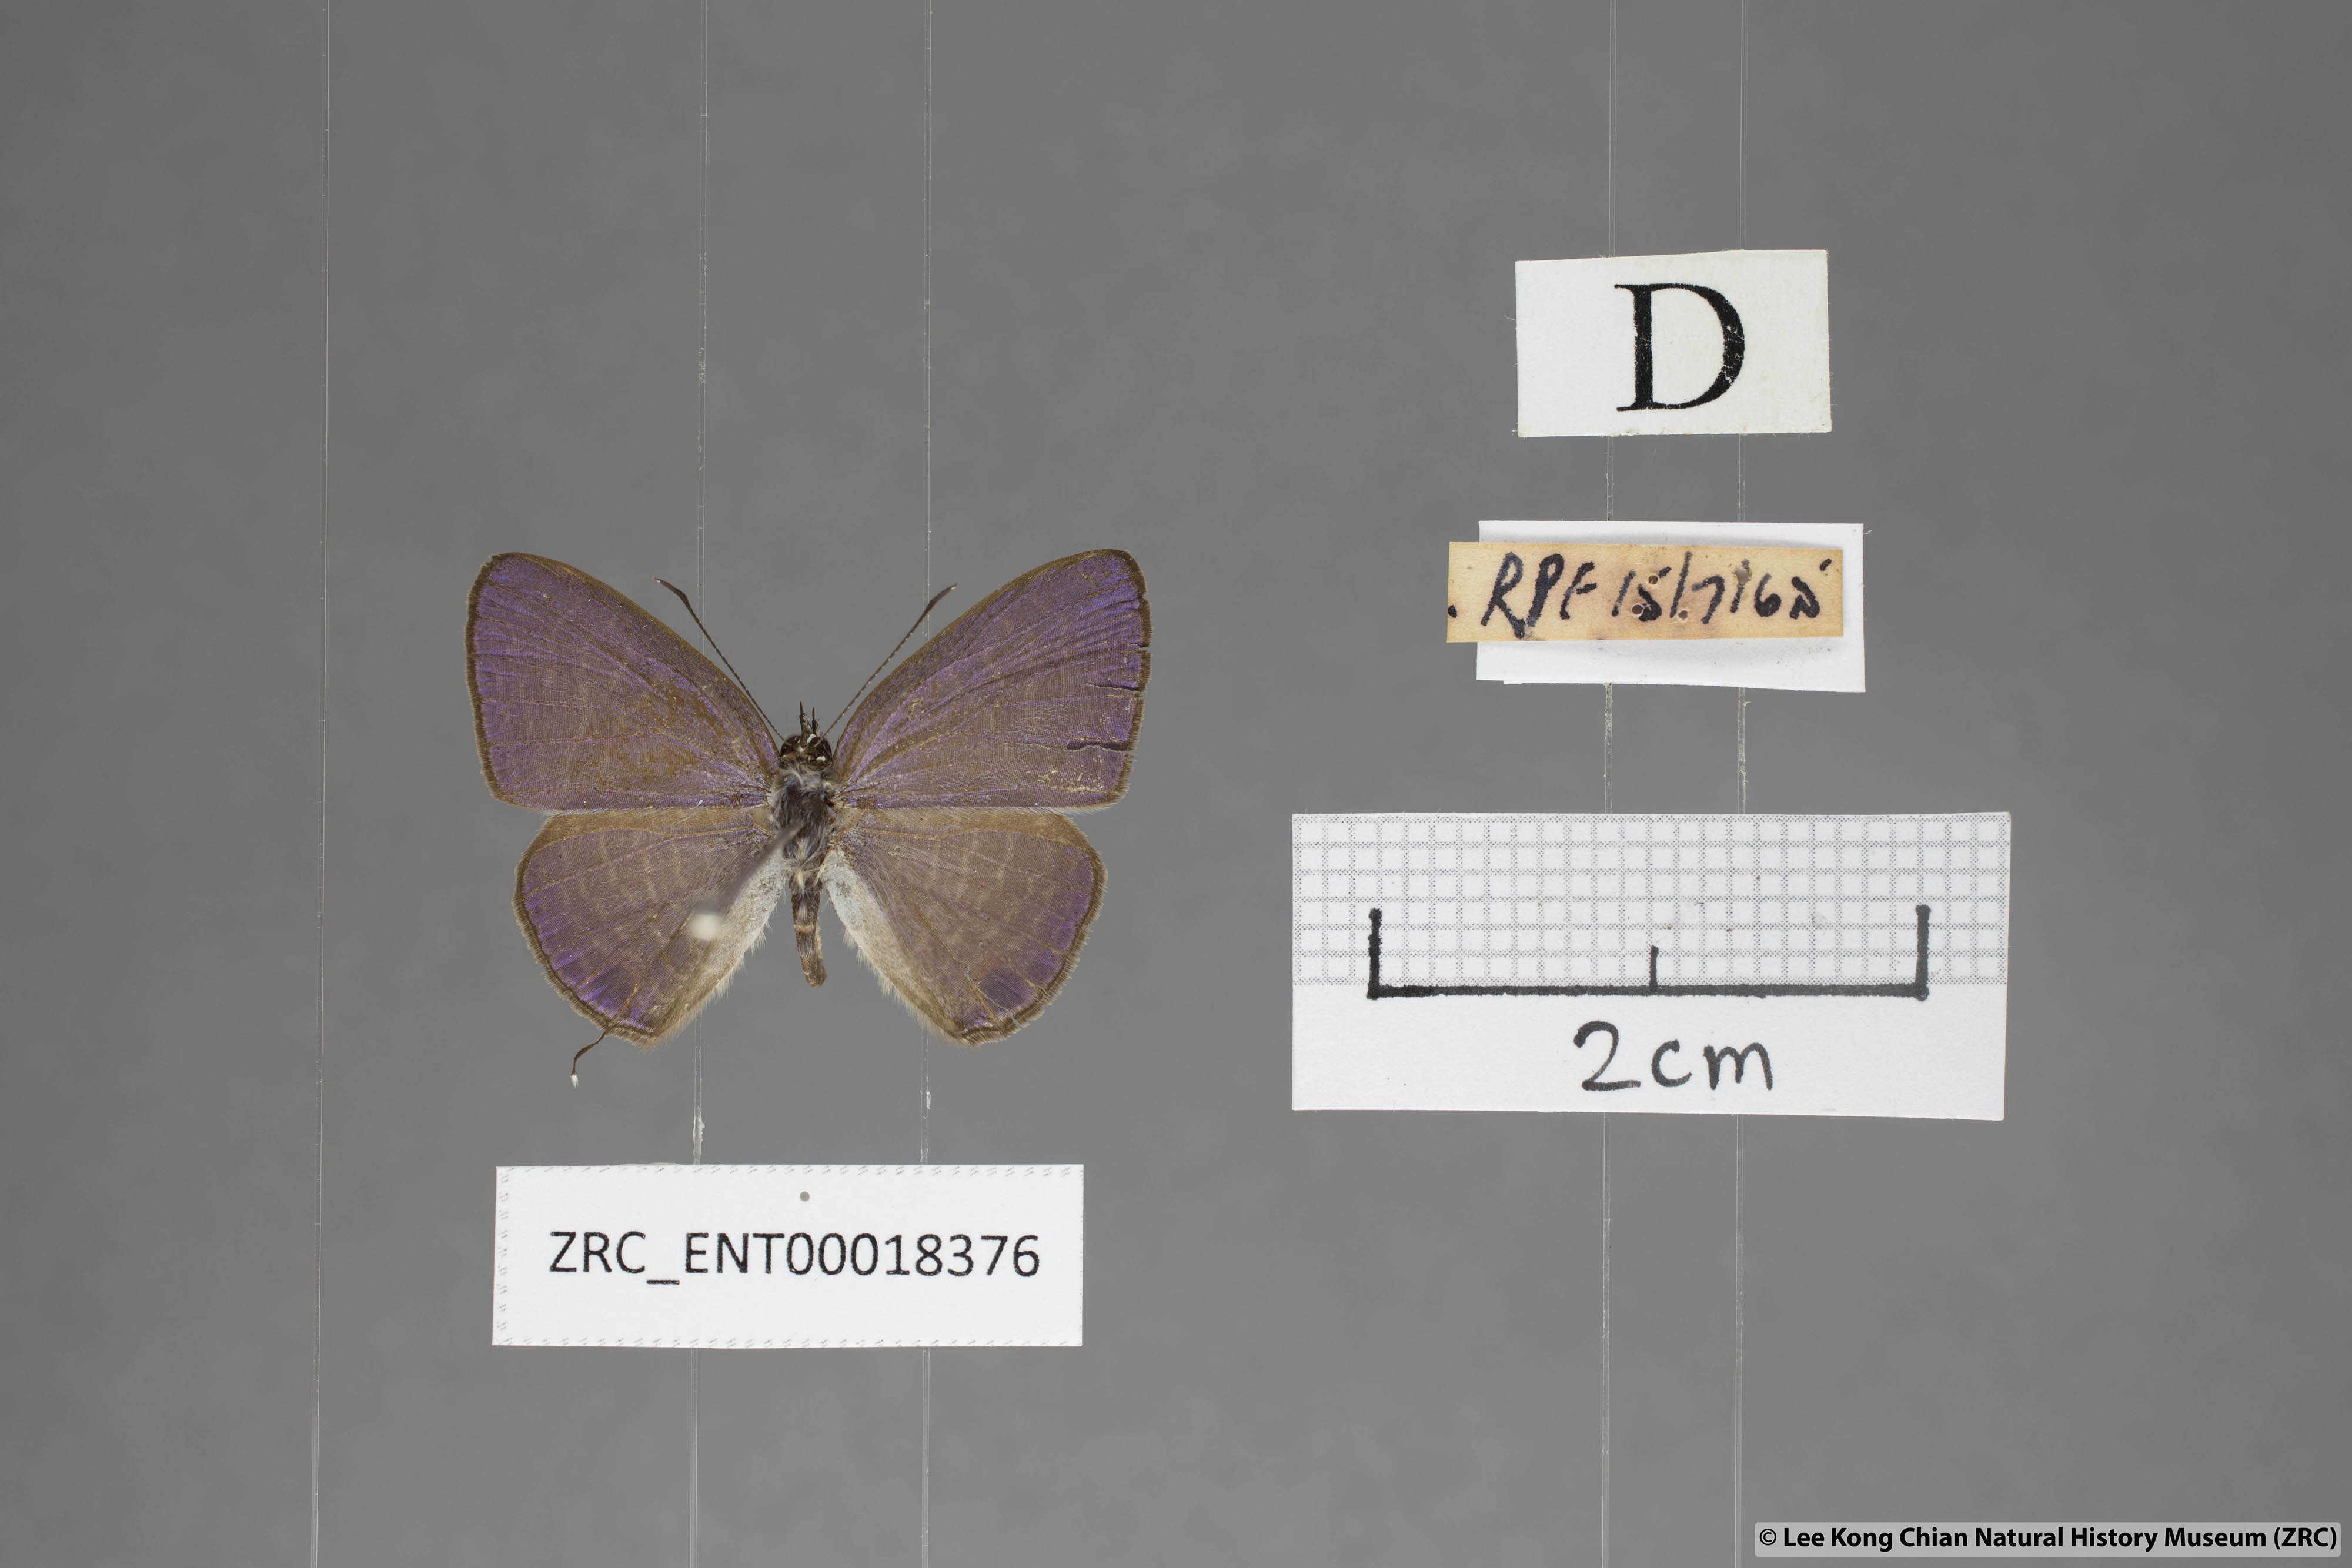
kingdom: Animalia
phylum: Arthropoda
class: Insecta
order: Lepidoptera
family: Lycaenidae
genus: Nacaduba
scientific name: Nacaduba kurava
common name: Transparent 6-line blue
